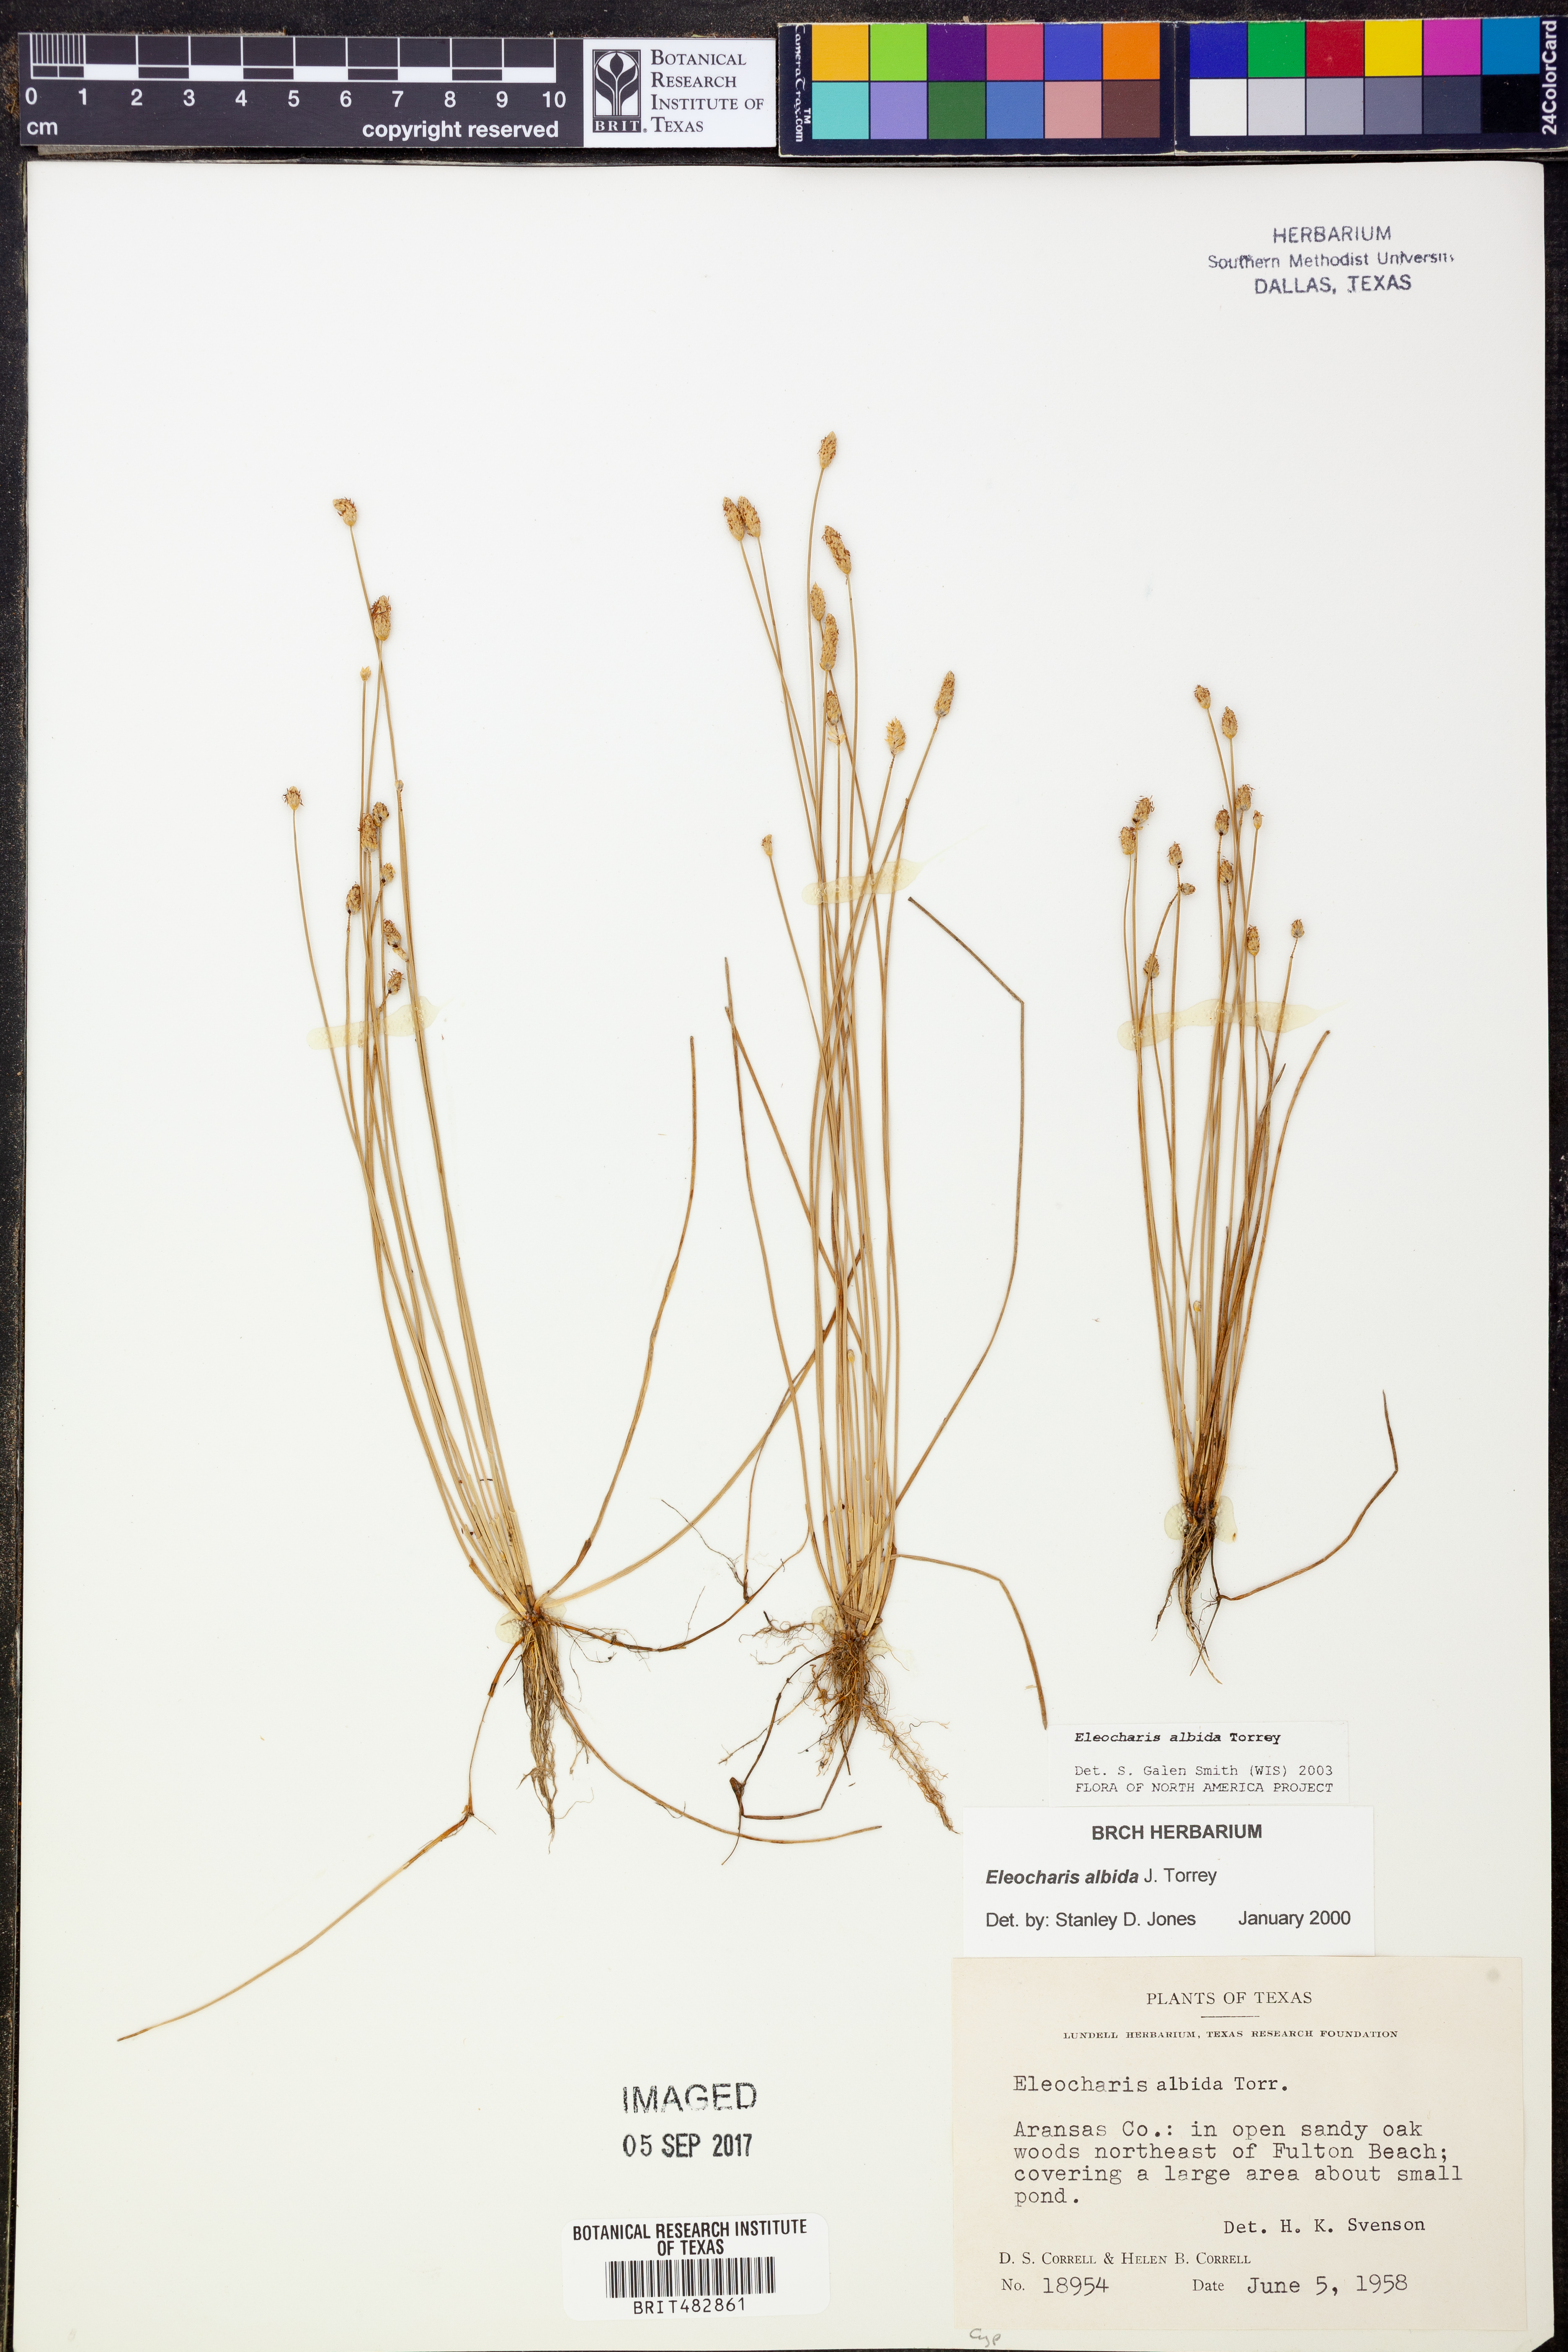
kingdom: Plantae
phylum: Tracheophyta
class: Liliopsida
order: Poales
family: Cyperaceae
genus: Eleocharis
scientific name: Eleocharis albida
